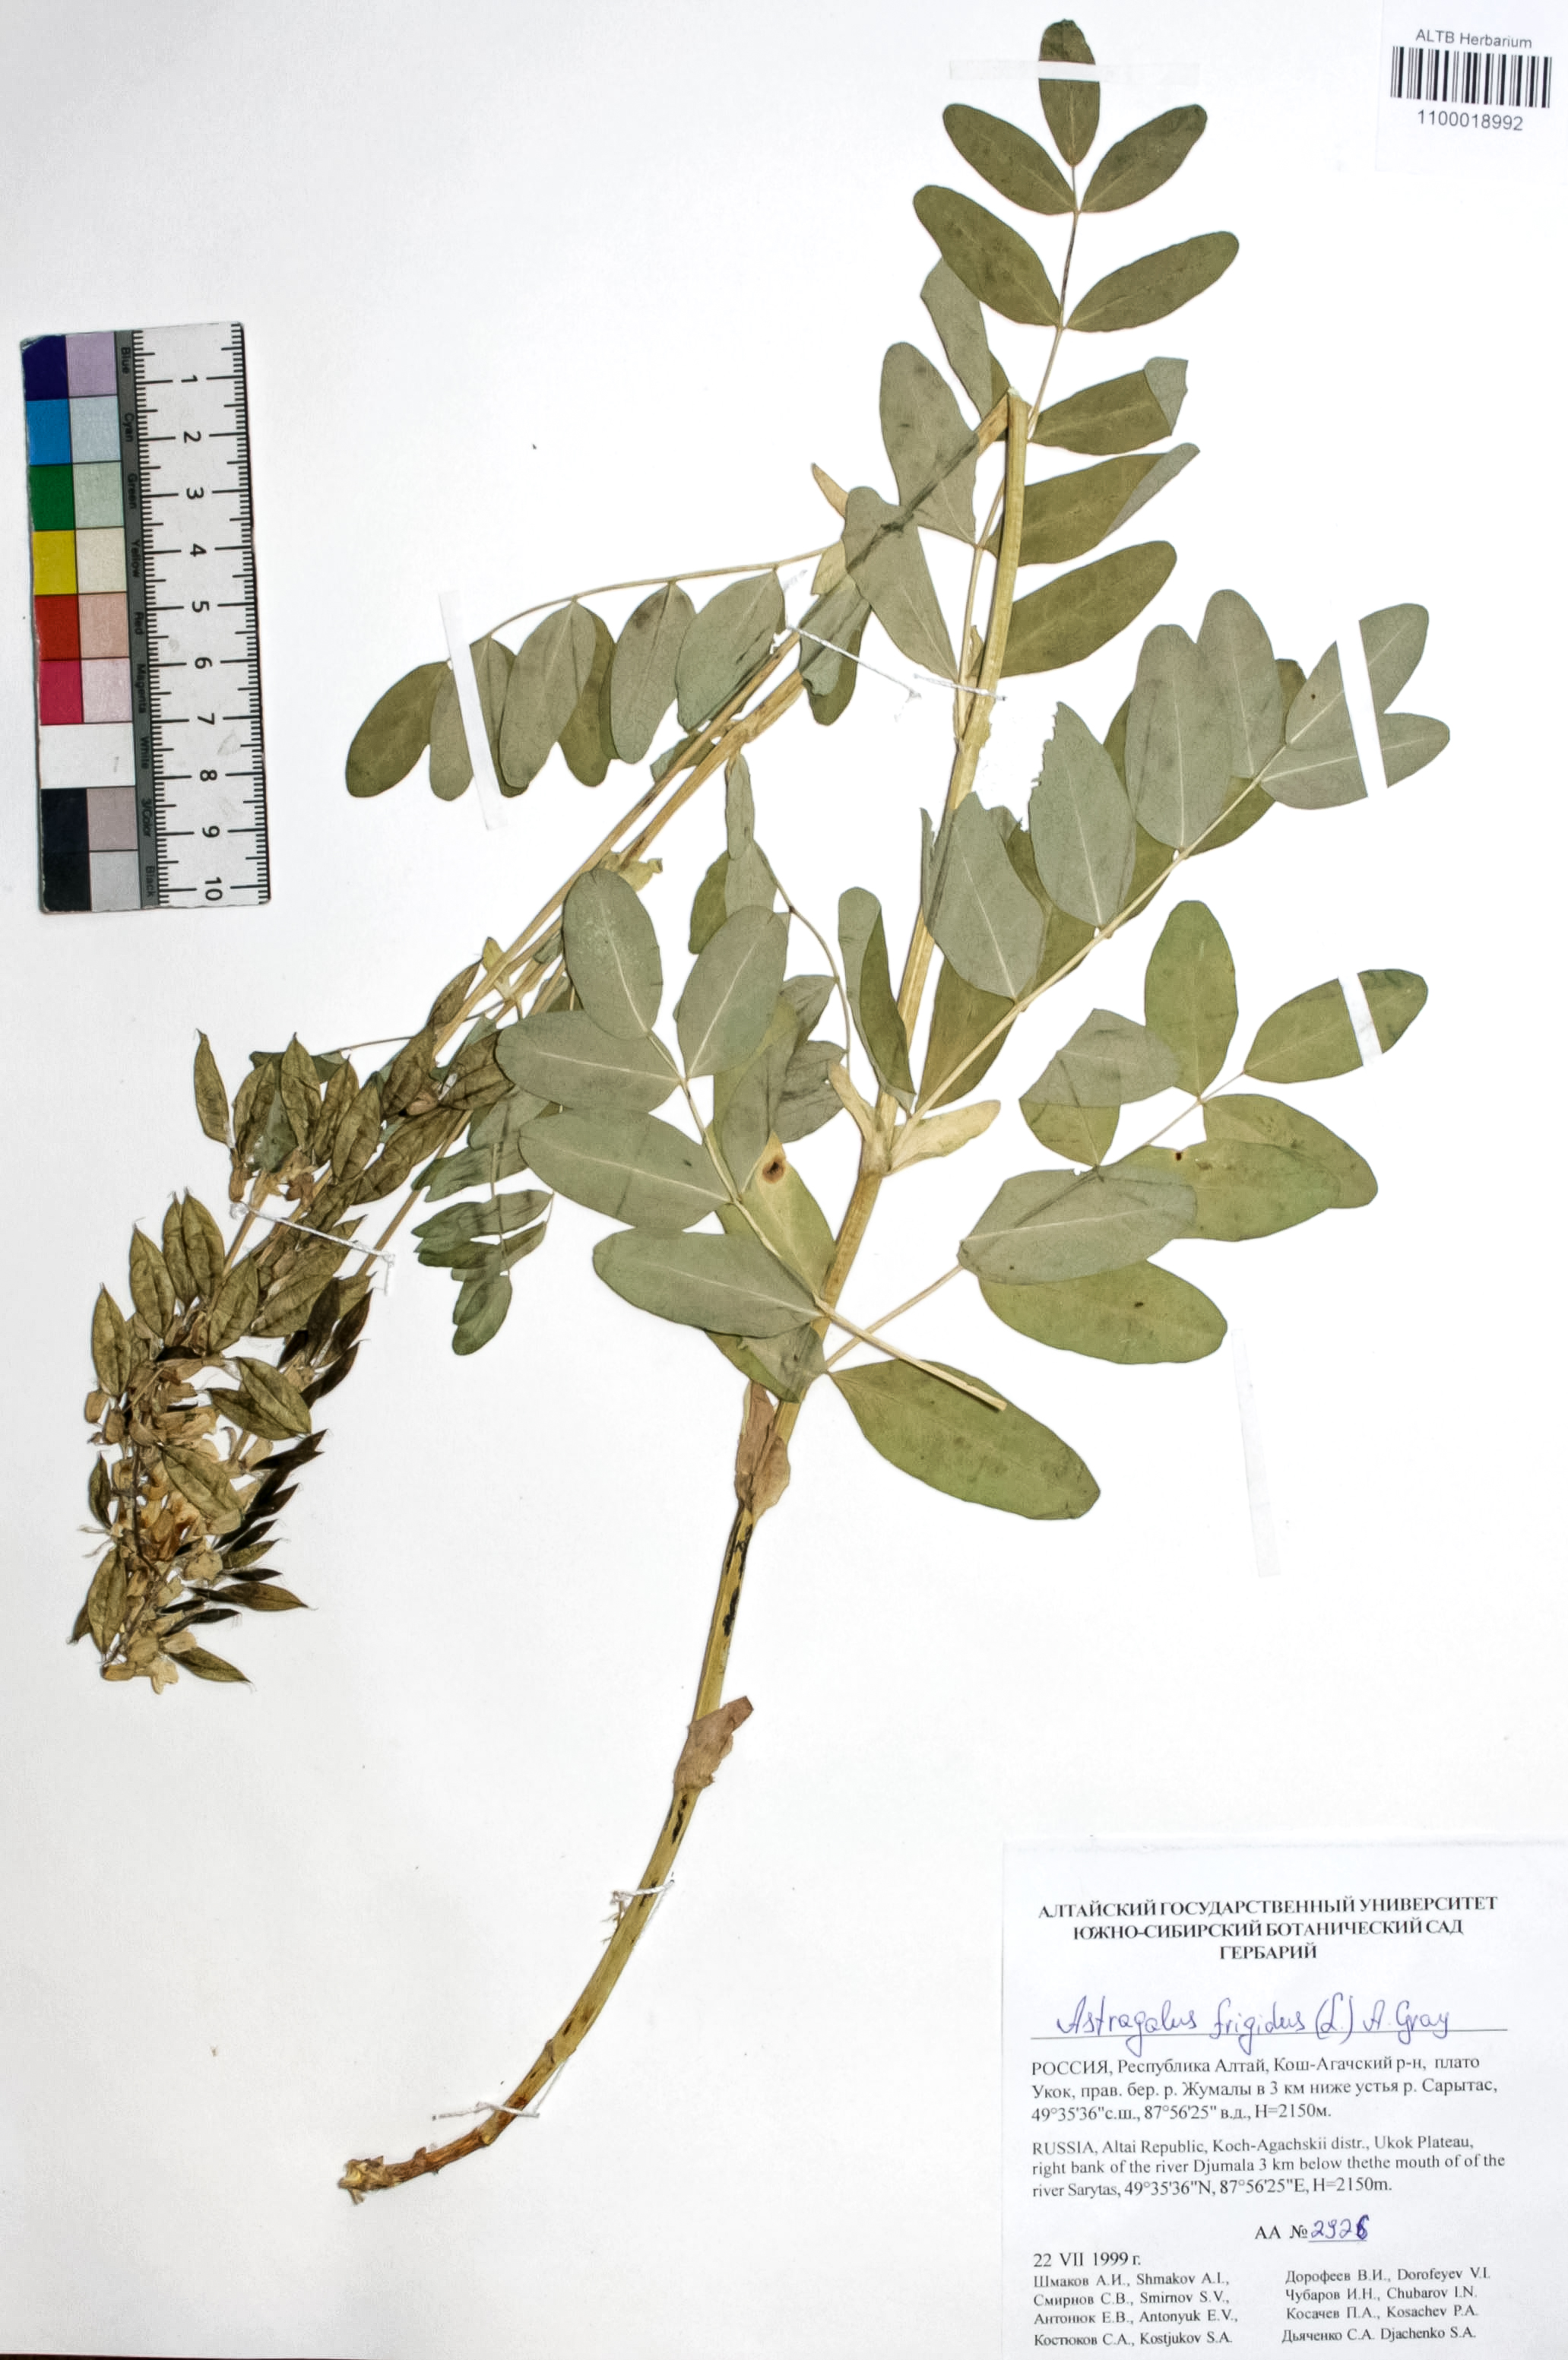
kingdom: Plantae
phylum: Tracheophyta
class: Magnoliopsida
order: Fabales
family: Fabaceae
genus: Astragalus
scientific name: Astragalus frigidus
